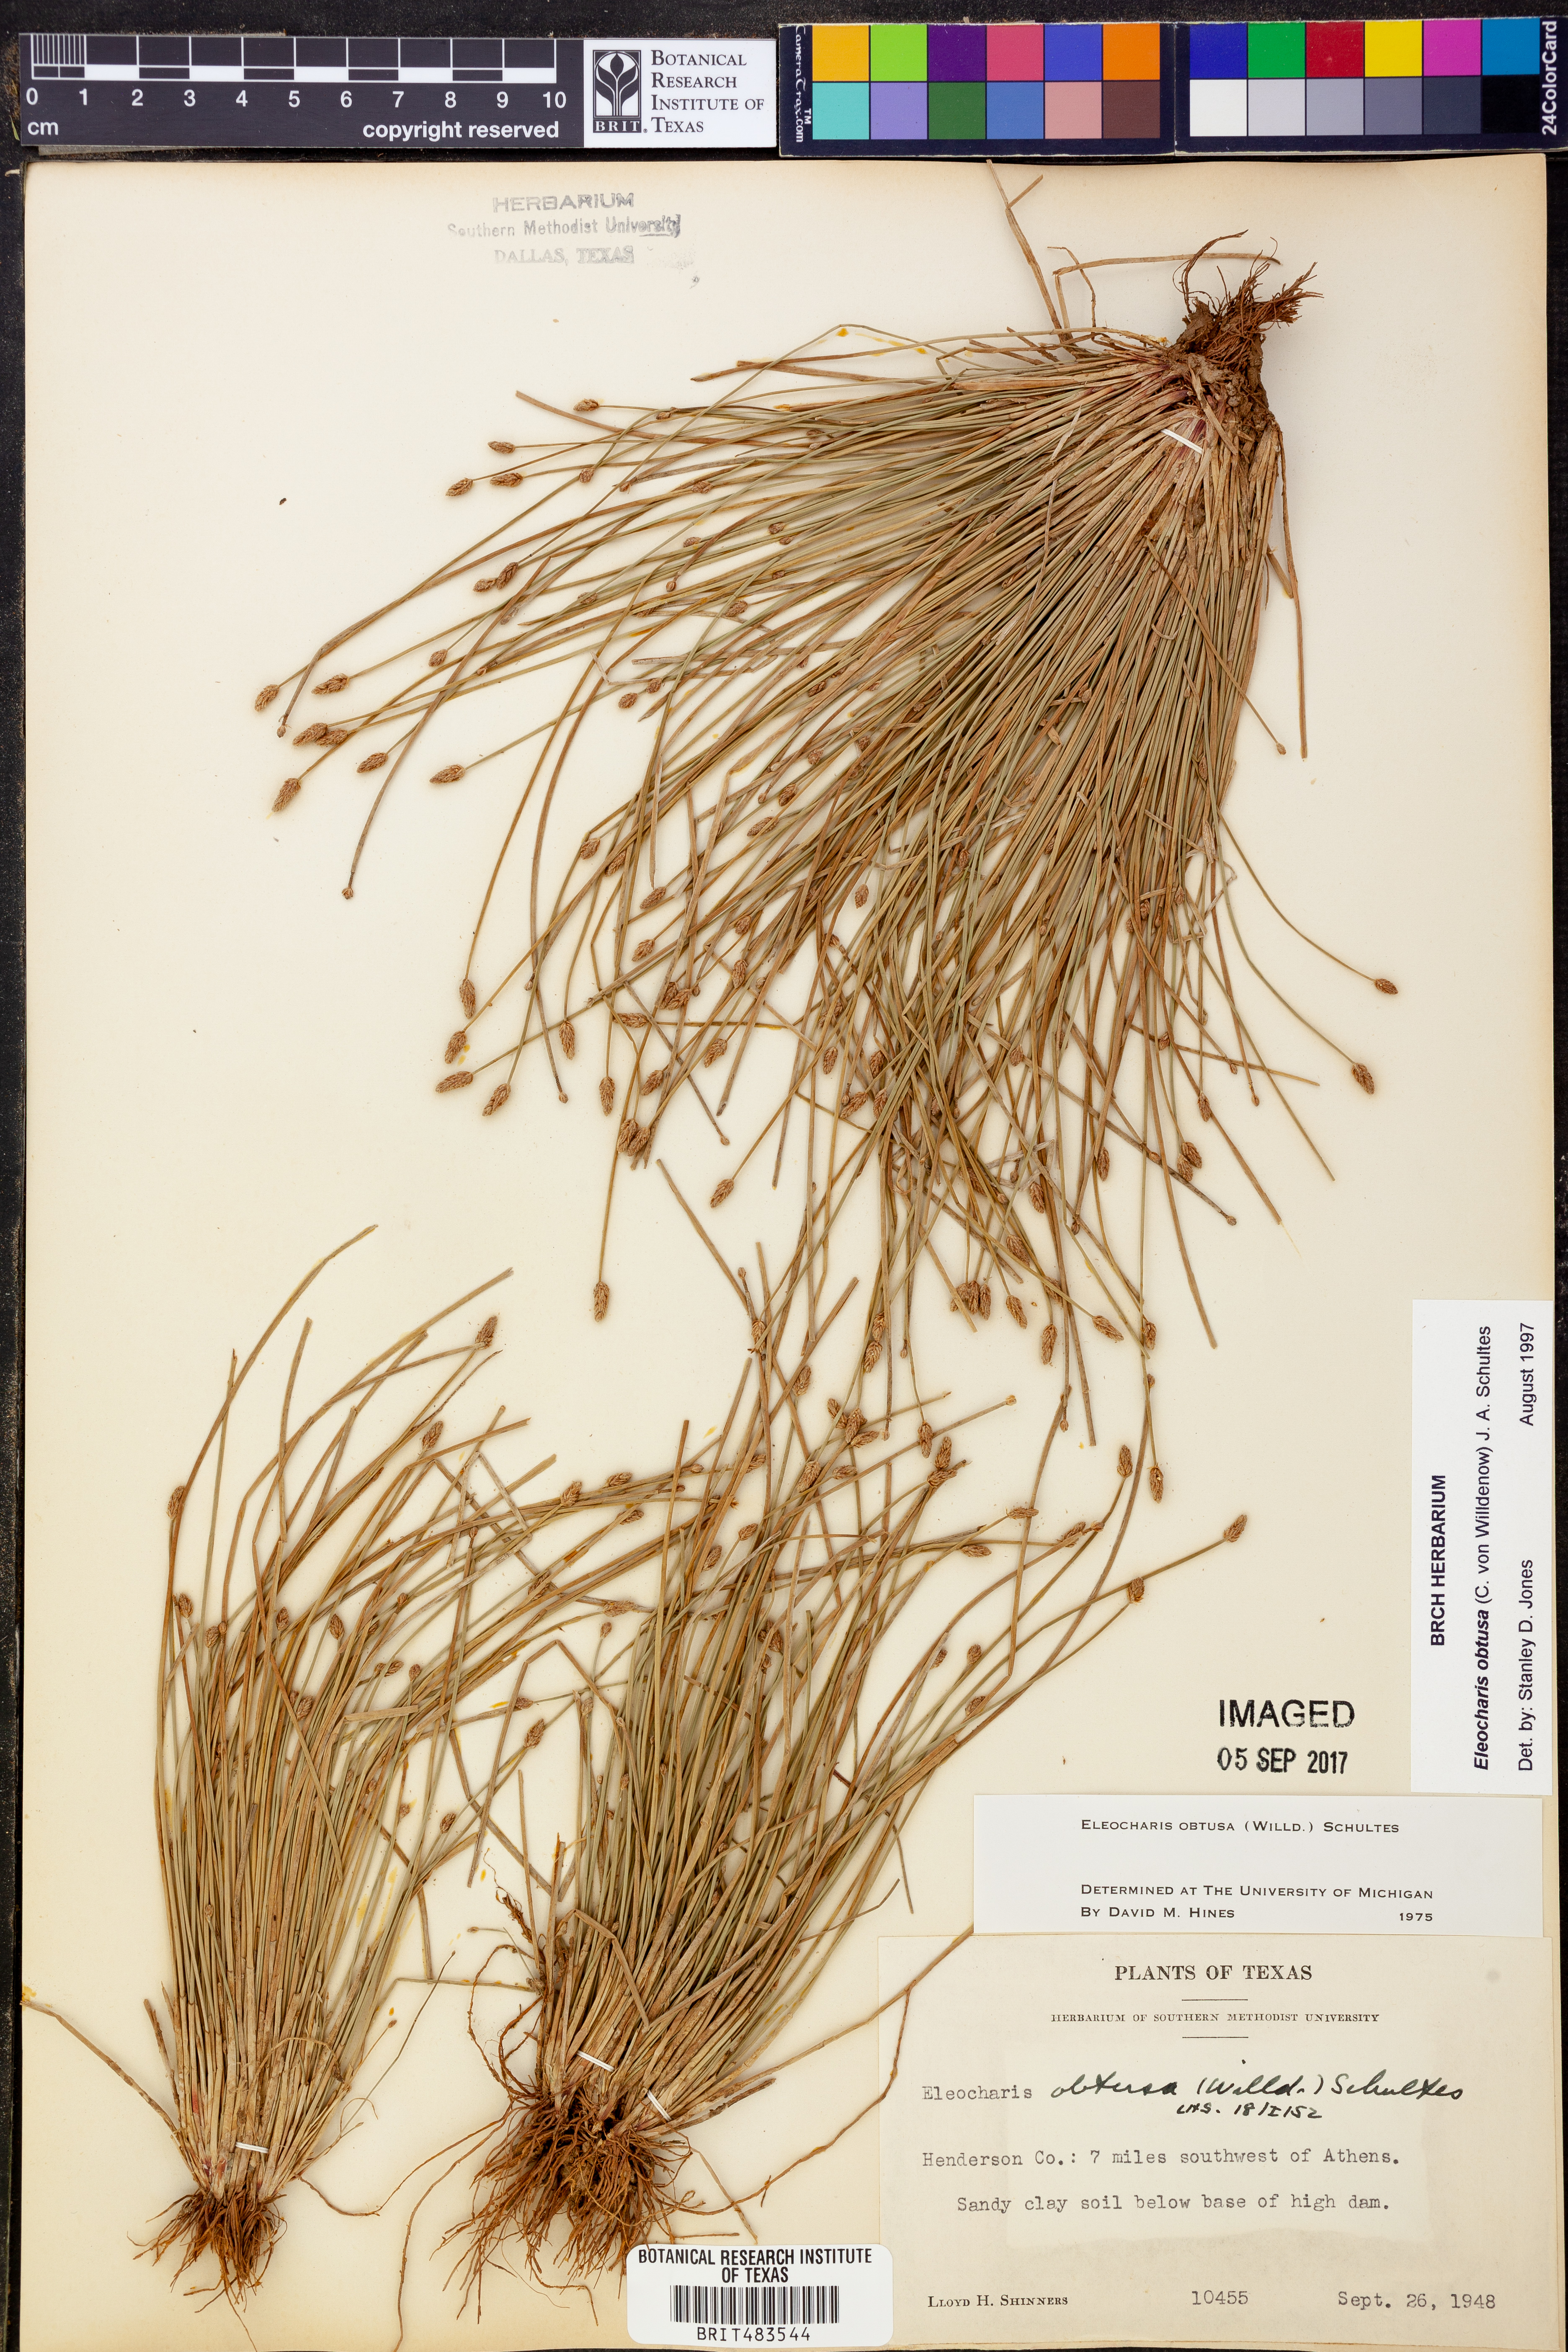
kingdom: Plantae
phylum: Tracheophyta
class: Liliopsida
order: Poales
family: Cyperaceae
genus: Eleocharis
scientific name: Eleocharis obtusa
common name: Blunt spikerush
